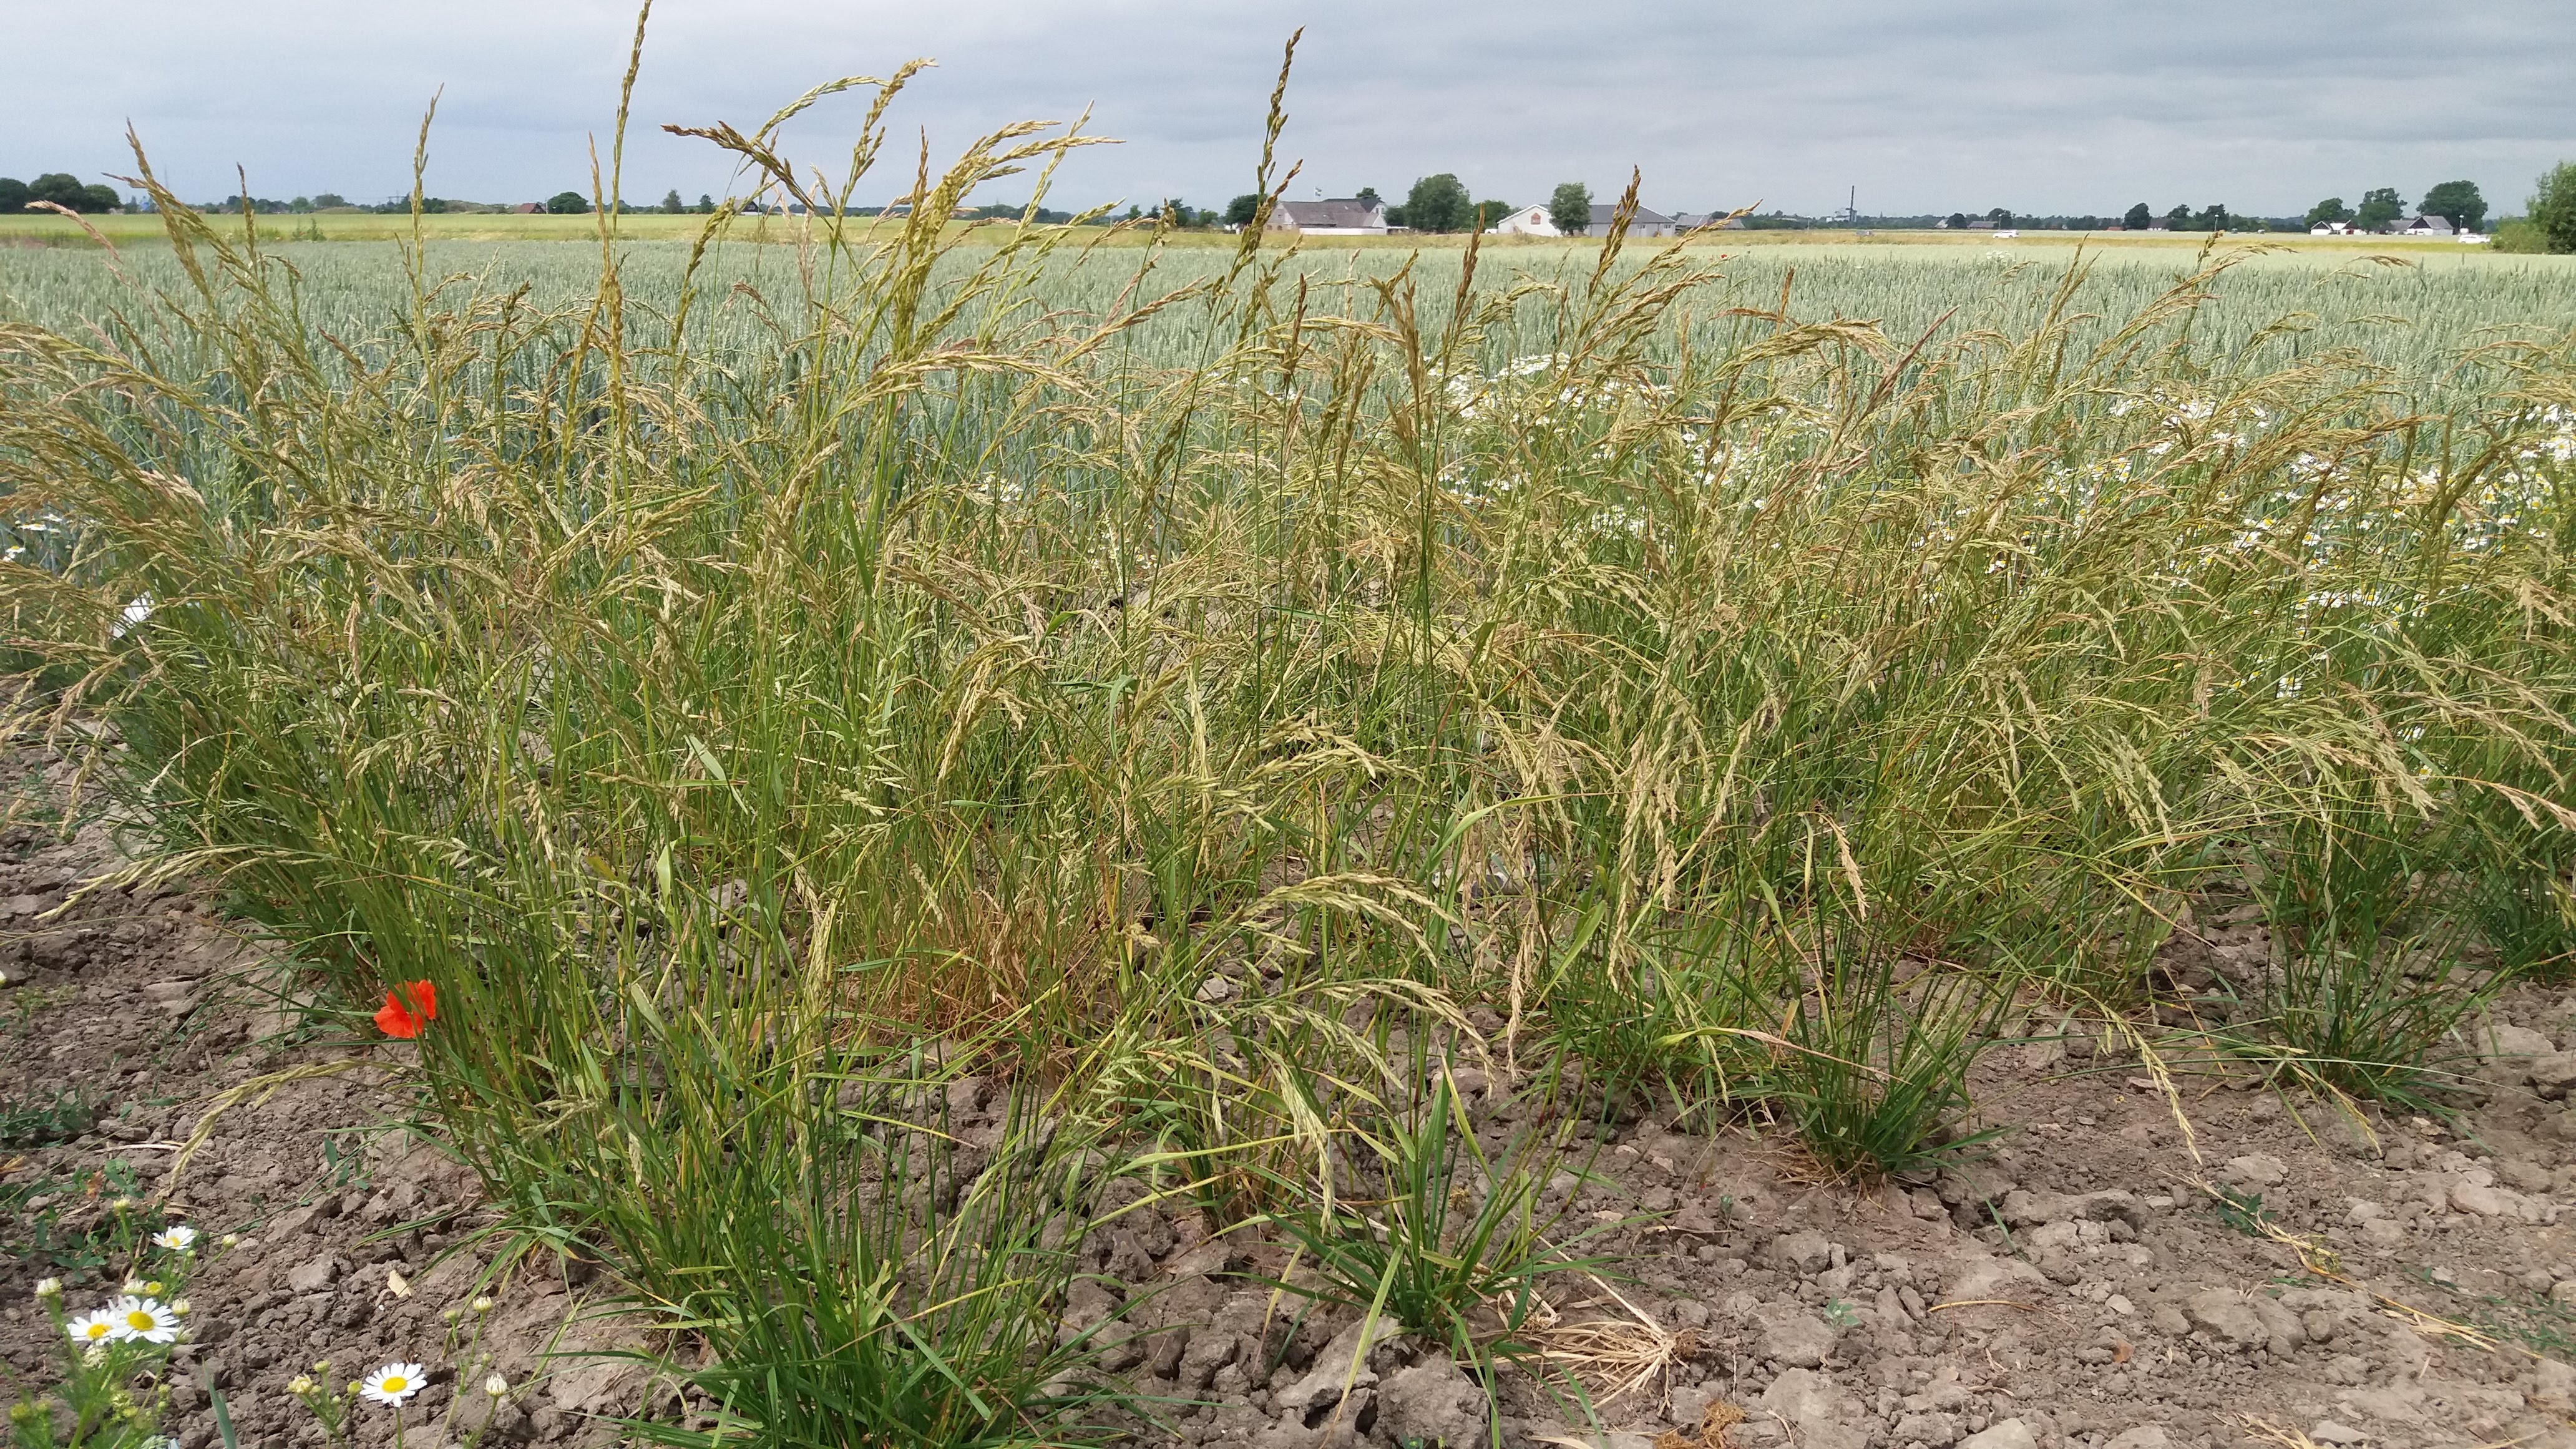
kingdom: Plantae
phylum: Tracheophyta
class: Liliopsida
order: Poales
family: Poaceae
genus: Festuca
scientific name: Festuca
